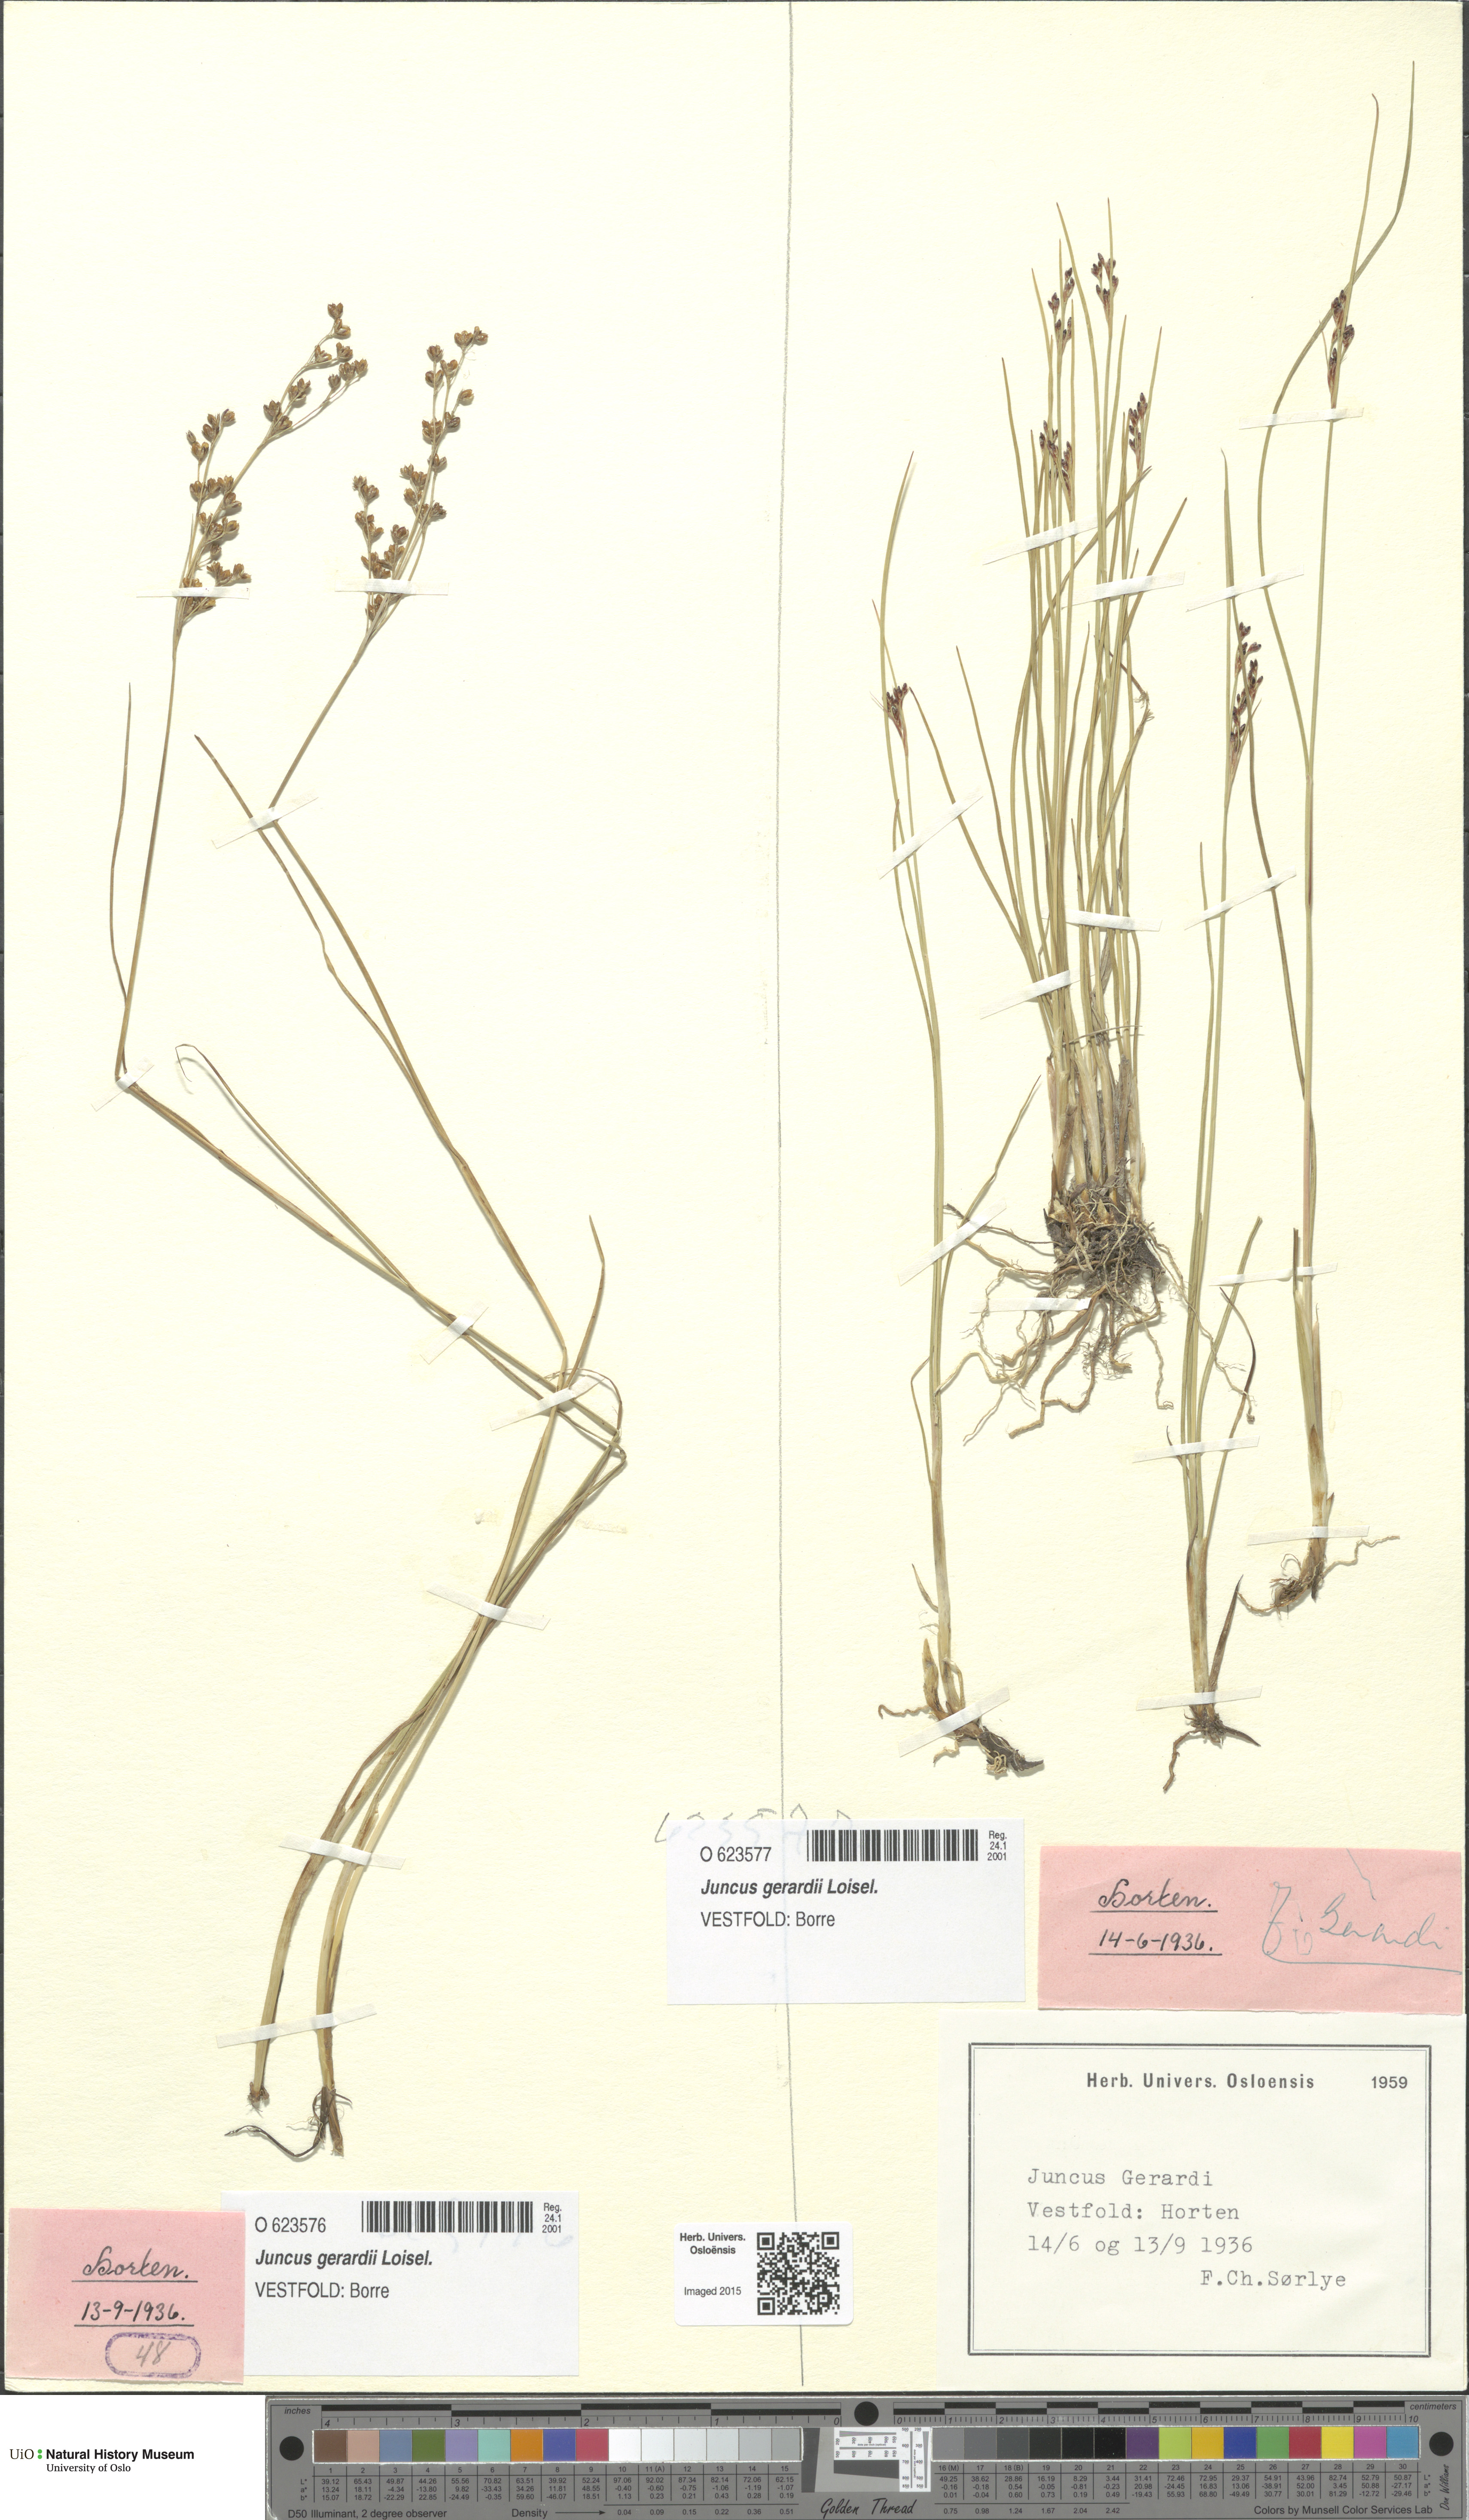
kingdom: Plantae
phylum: Tracheophyta
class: Liliopsida
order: Poales
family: Juncaceae
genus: Juncus
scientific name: Juncus gerardi
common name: Saltmarsh rush
